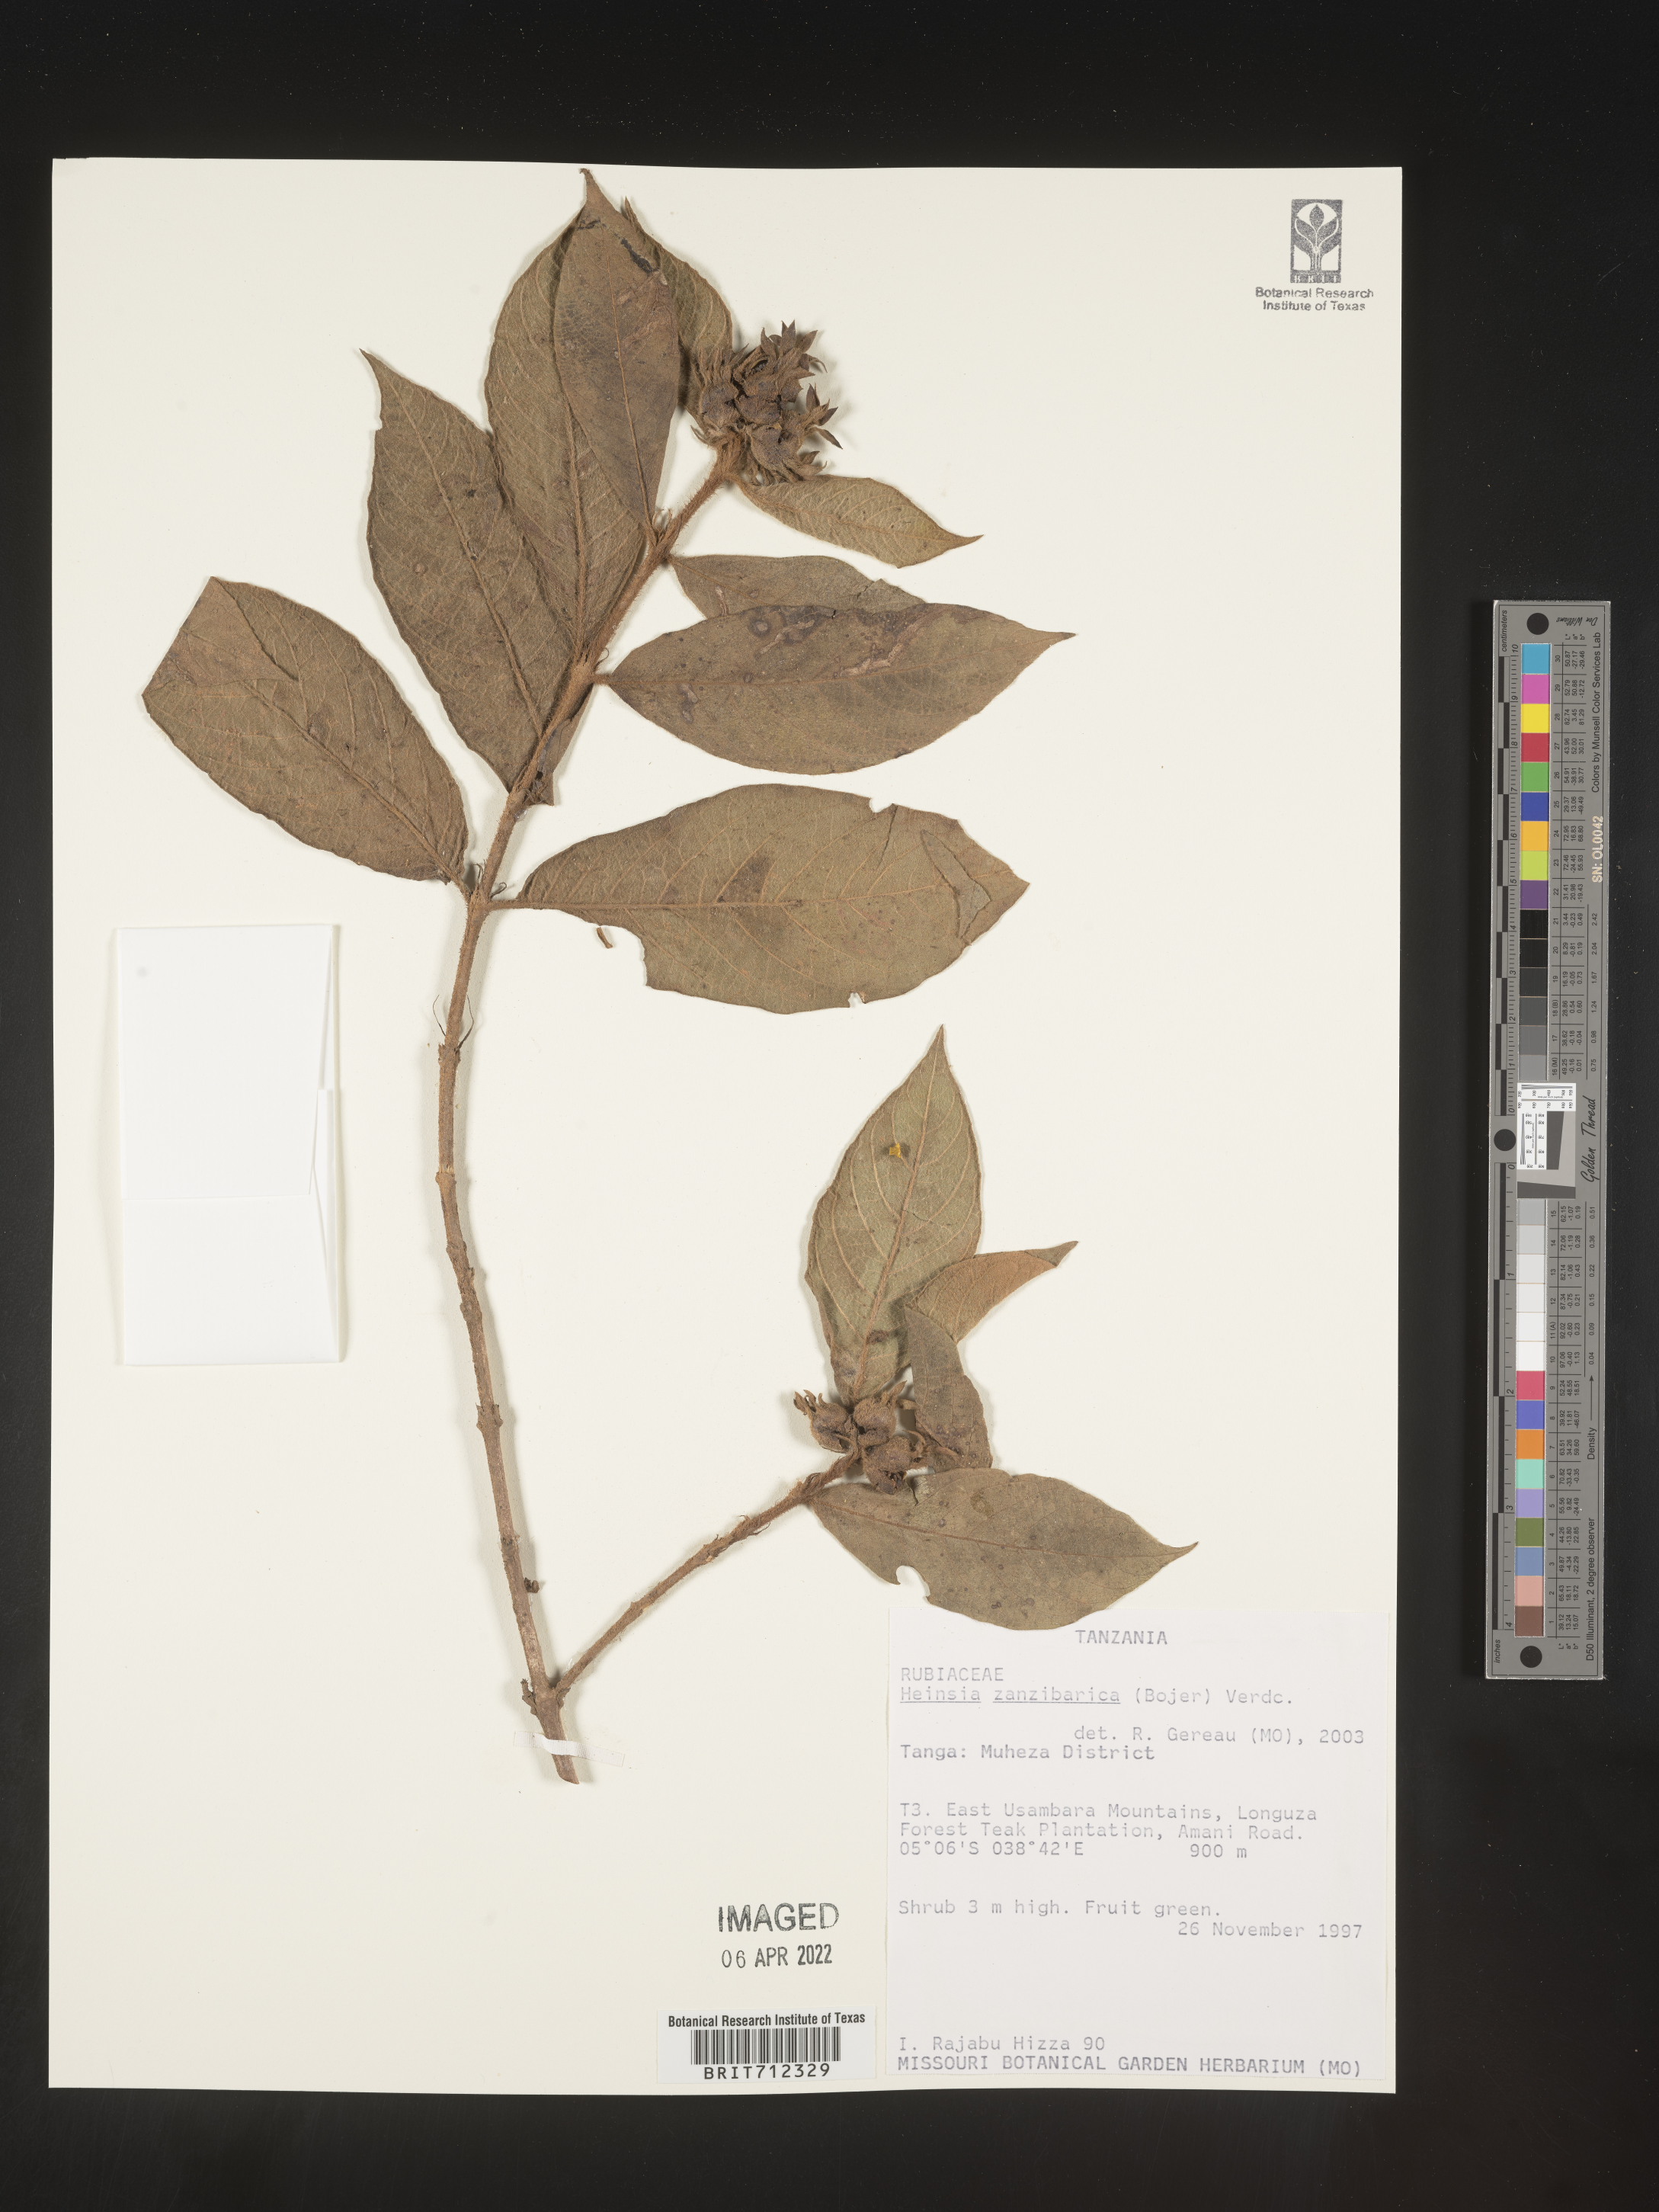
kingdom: Plantae
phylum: Tracheophyta
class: Magnoliopsida
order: Gentianales
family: Rubiaceae
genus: Heinsia
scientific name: Heinsia
